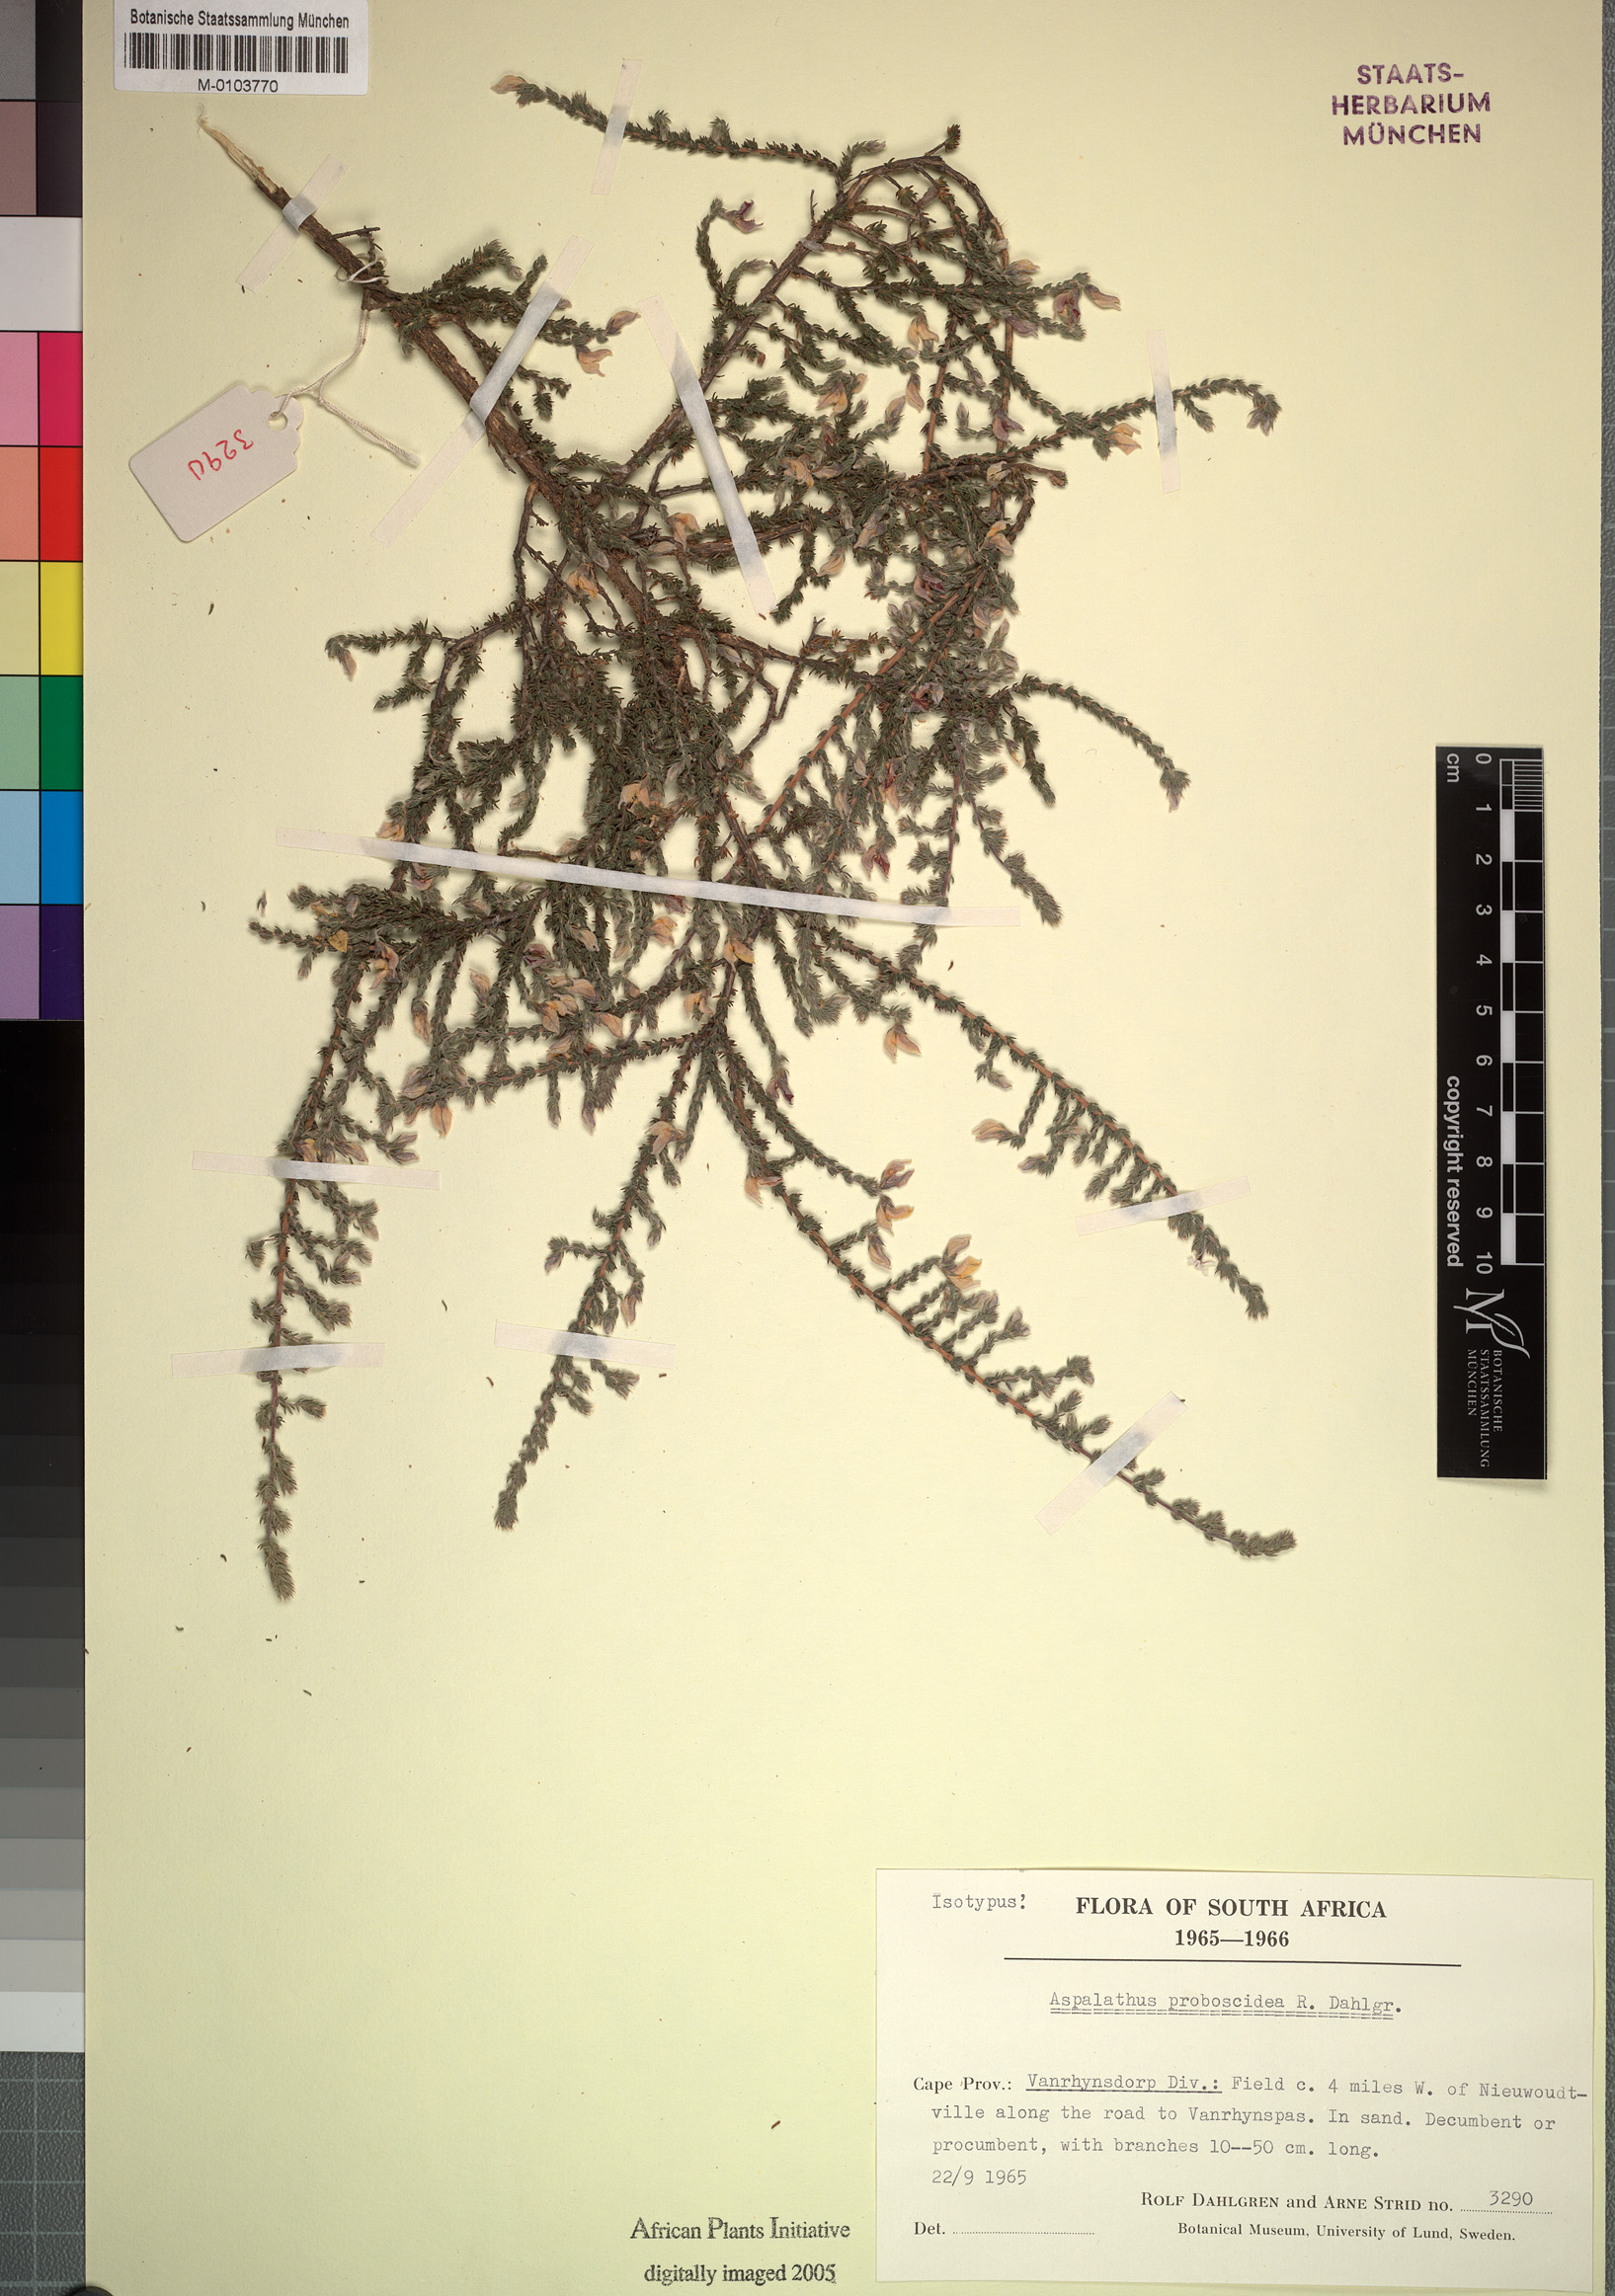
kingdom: Plantae
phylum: Tracheophyta
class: Magnoliopsida
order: Fabales
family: Fabaceae
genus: Aspalathus
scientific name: Aspalathus proboscidea
